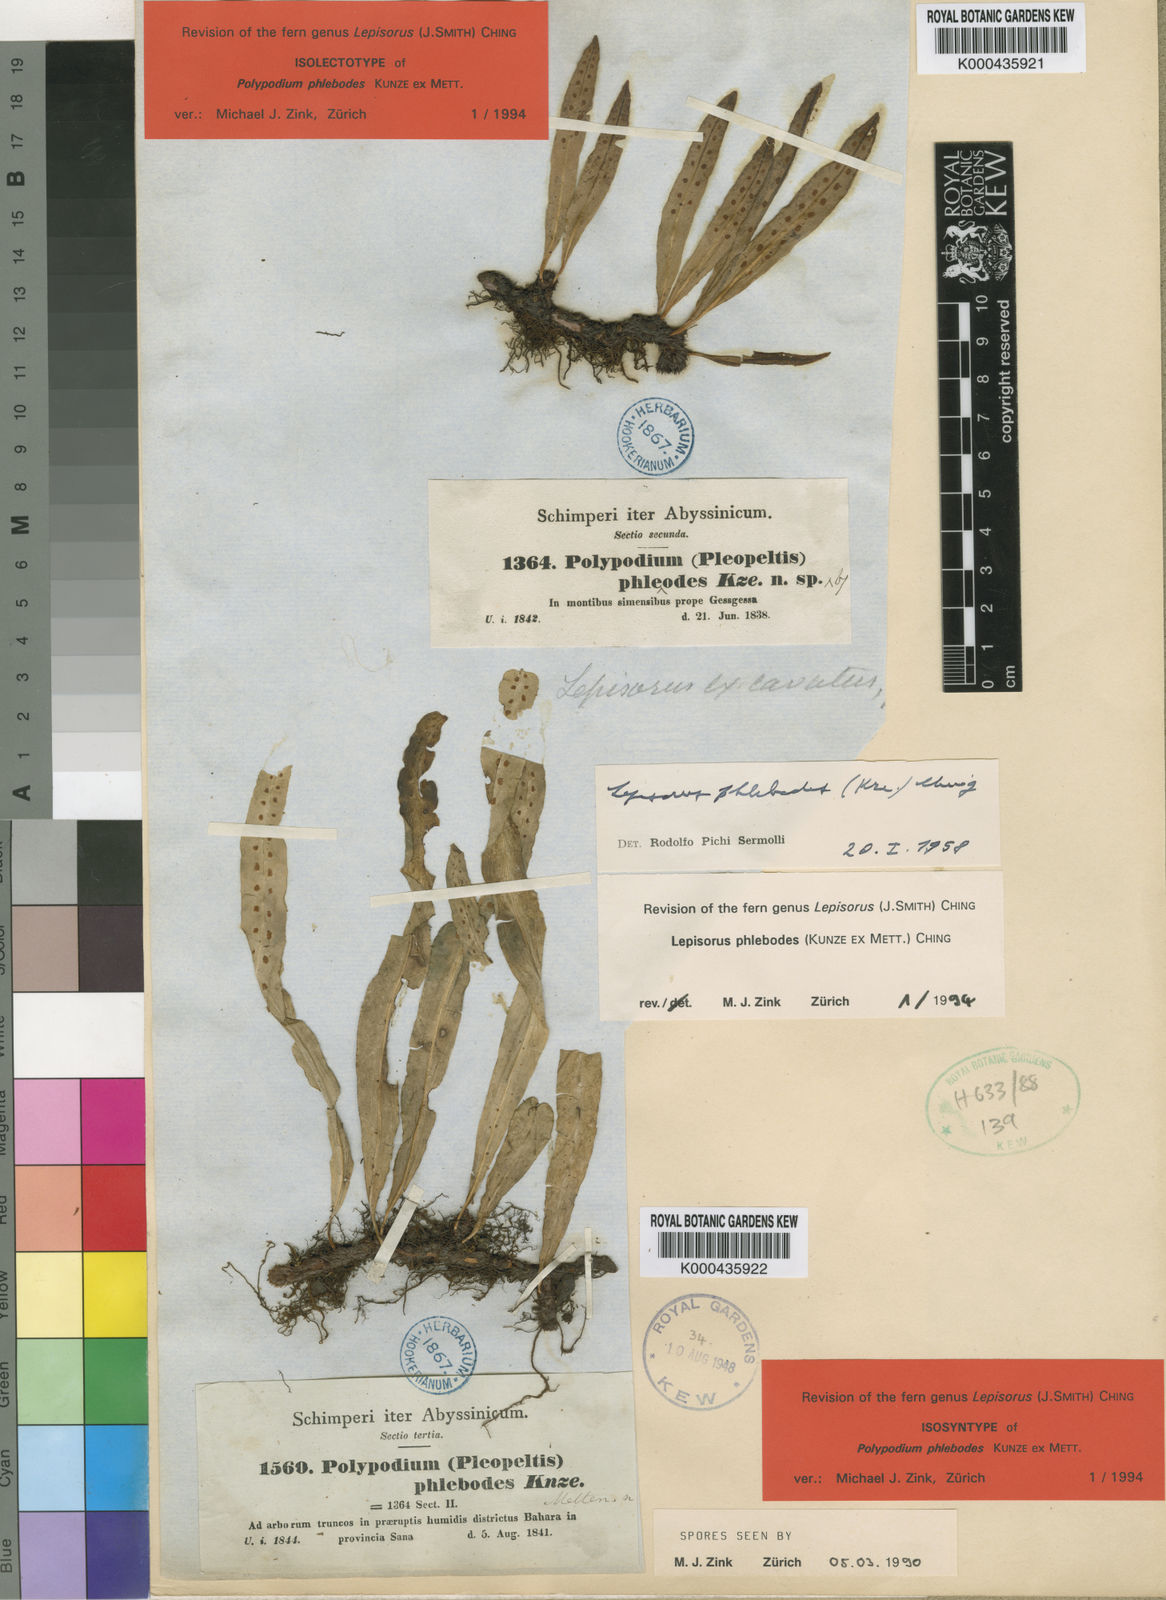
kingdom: Plantae
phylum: Tracheophyta
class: Polypodiopsida
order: Polypodiales
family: Polypodiaceae
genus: Lepisorus
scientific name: Lepisorus excavatus
